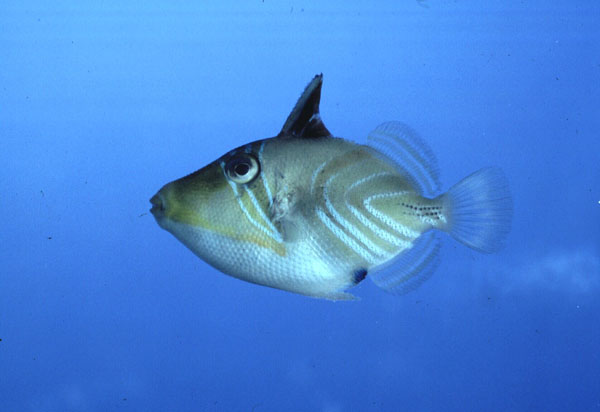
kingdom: Animalia
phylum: Chordata
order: Tetraodontiformes
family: Balistidae
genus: Rhinecanthus
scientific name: Rhinecanthus aculeatus
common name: White-banded triggerfish
